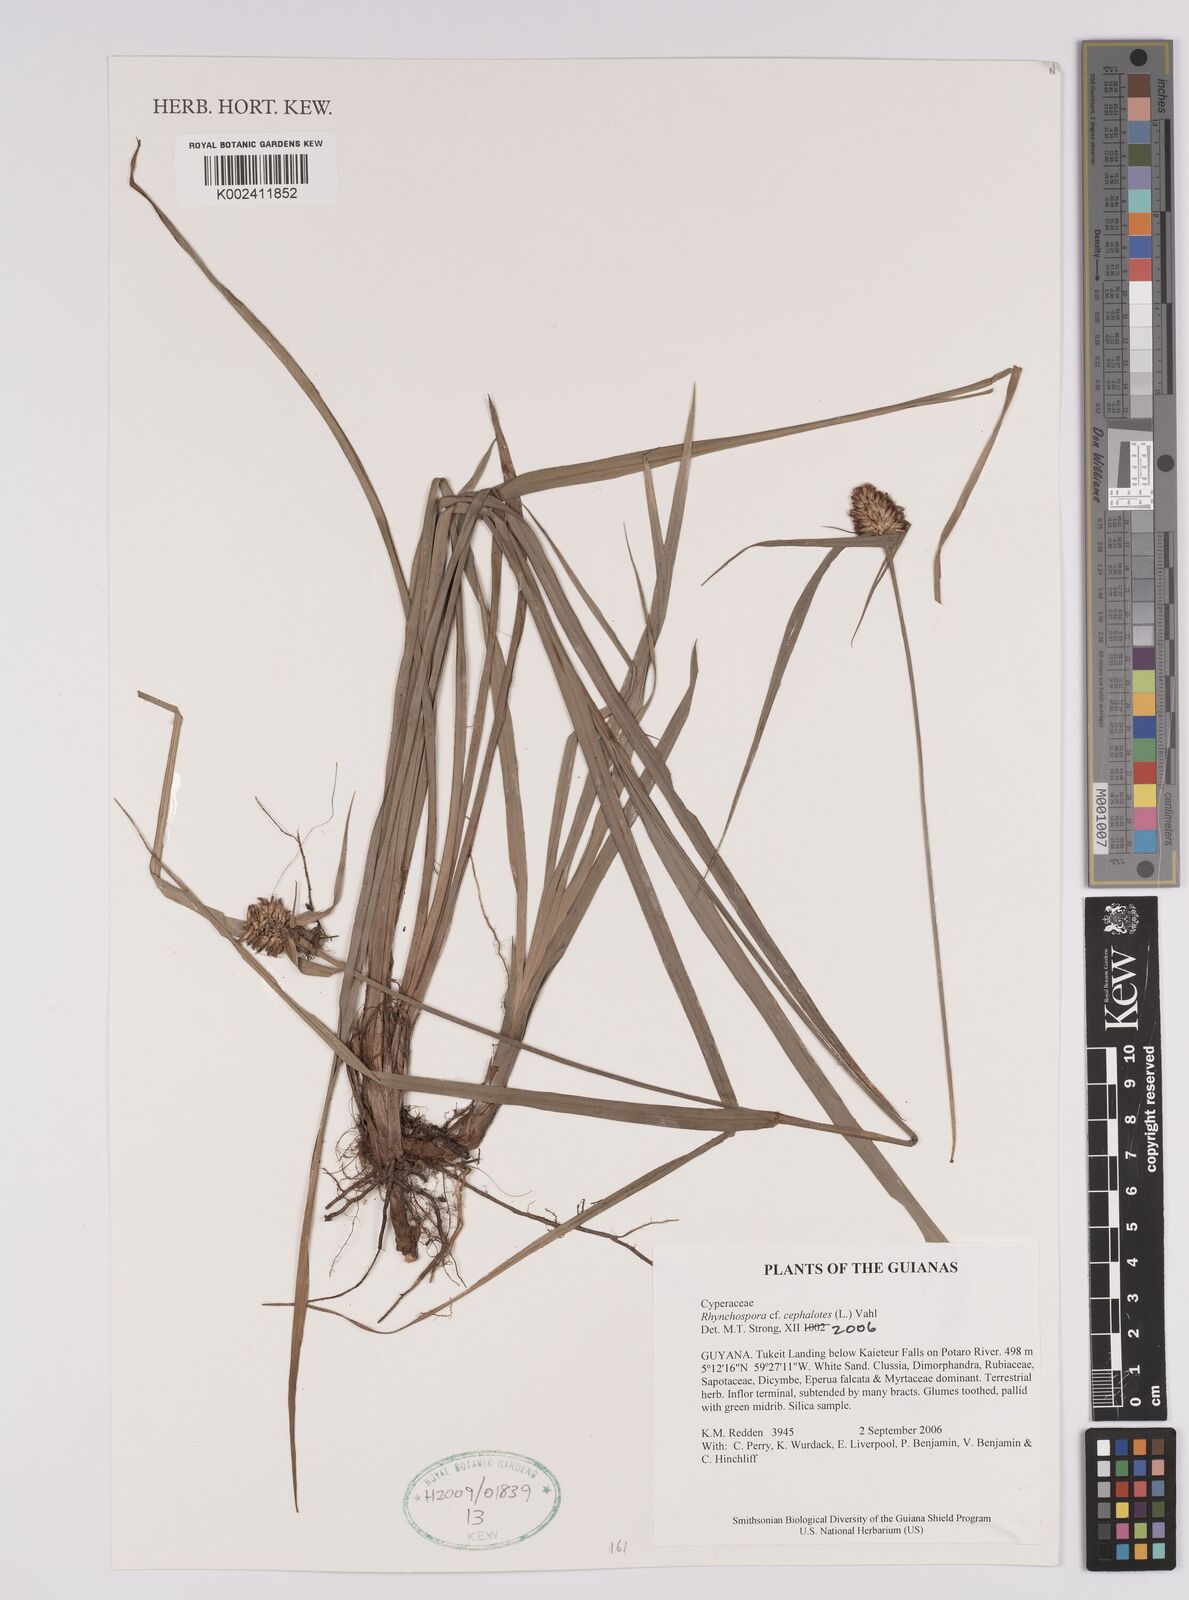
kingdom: Plantae
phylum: Tracheophyta
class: Liliopsida
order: Poales
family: Cyperaceae
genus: Rhynchospora
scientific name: Rhynchospora cephalotes
